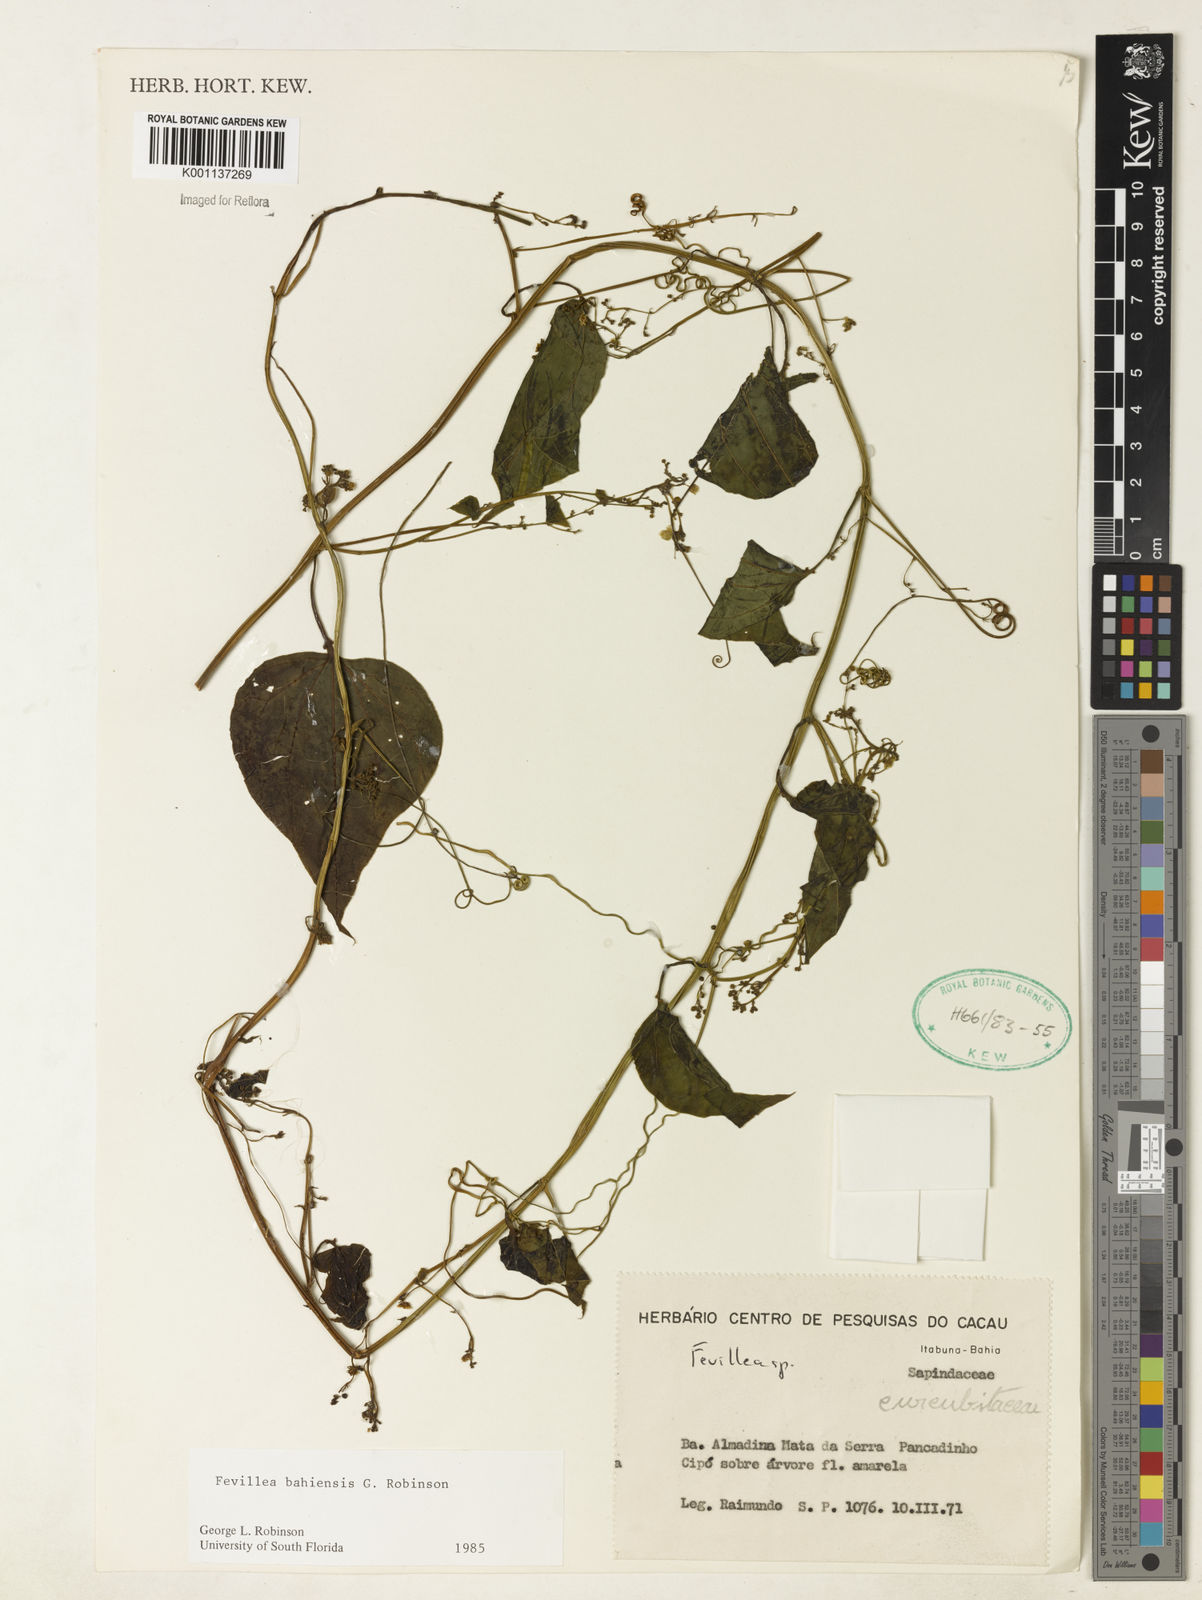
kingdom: Plantae
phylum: Tracheophyta
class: Magnoliopsida
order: Cucurbitales
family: Cucurbitaceae
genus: Fevillea
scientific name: Fevillea bahiensis
